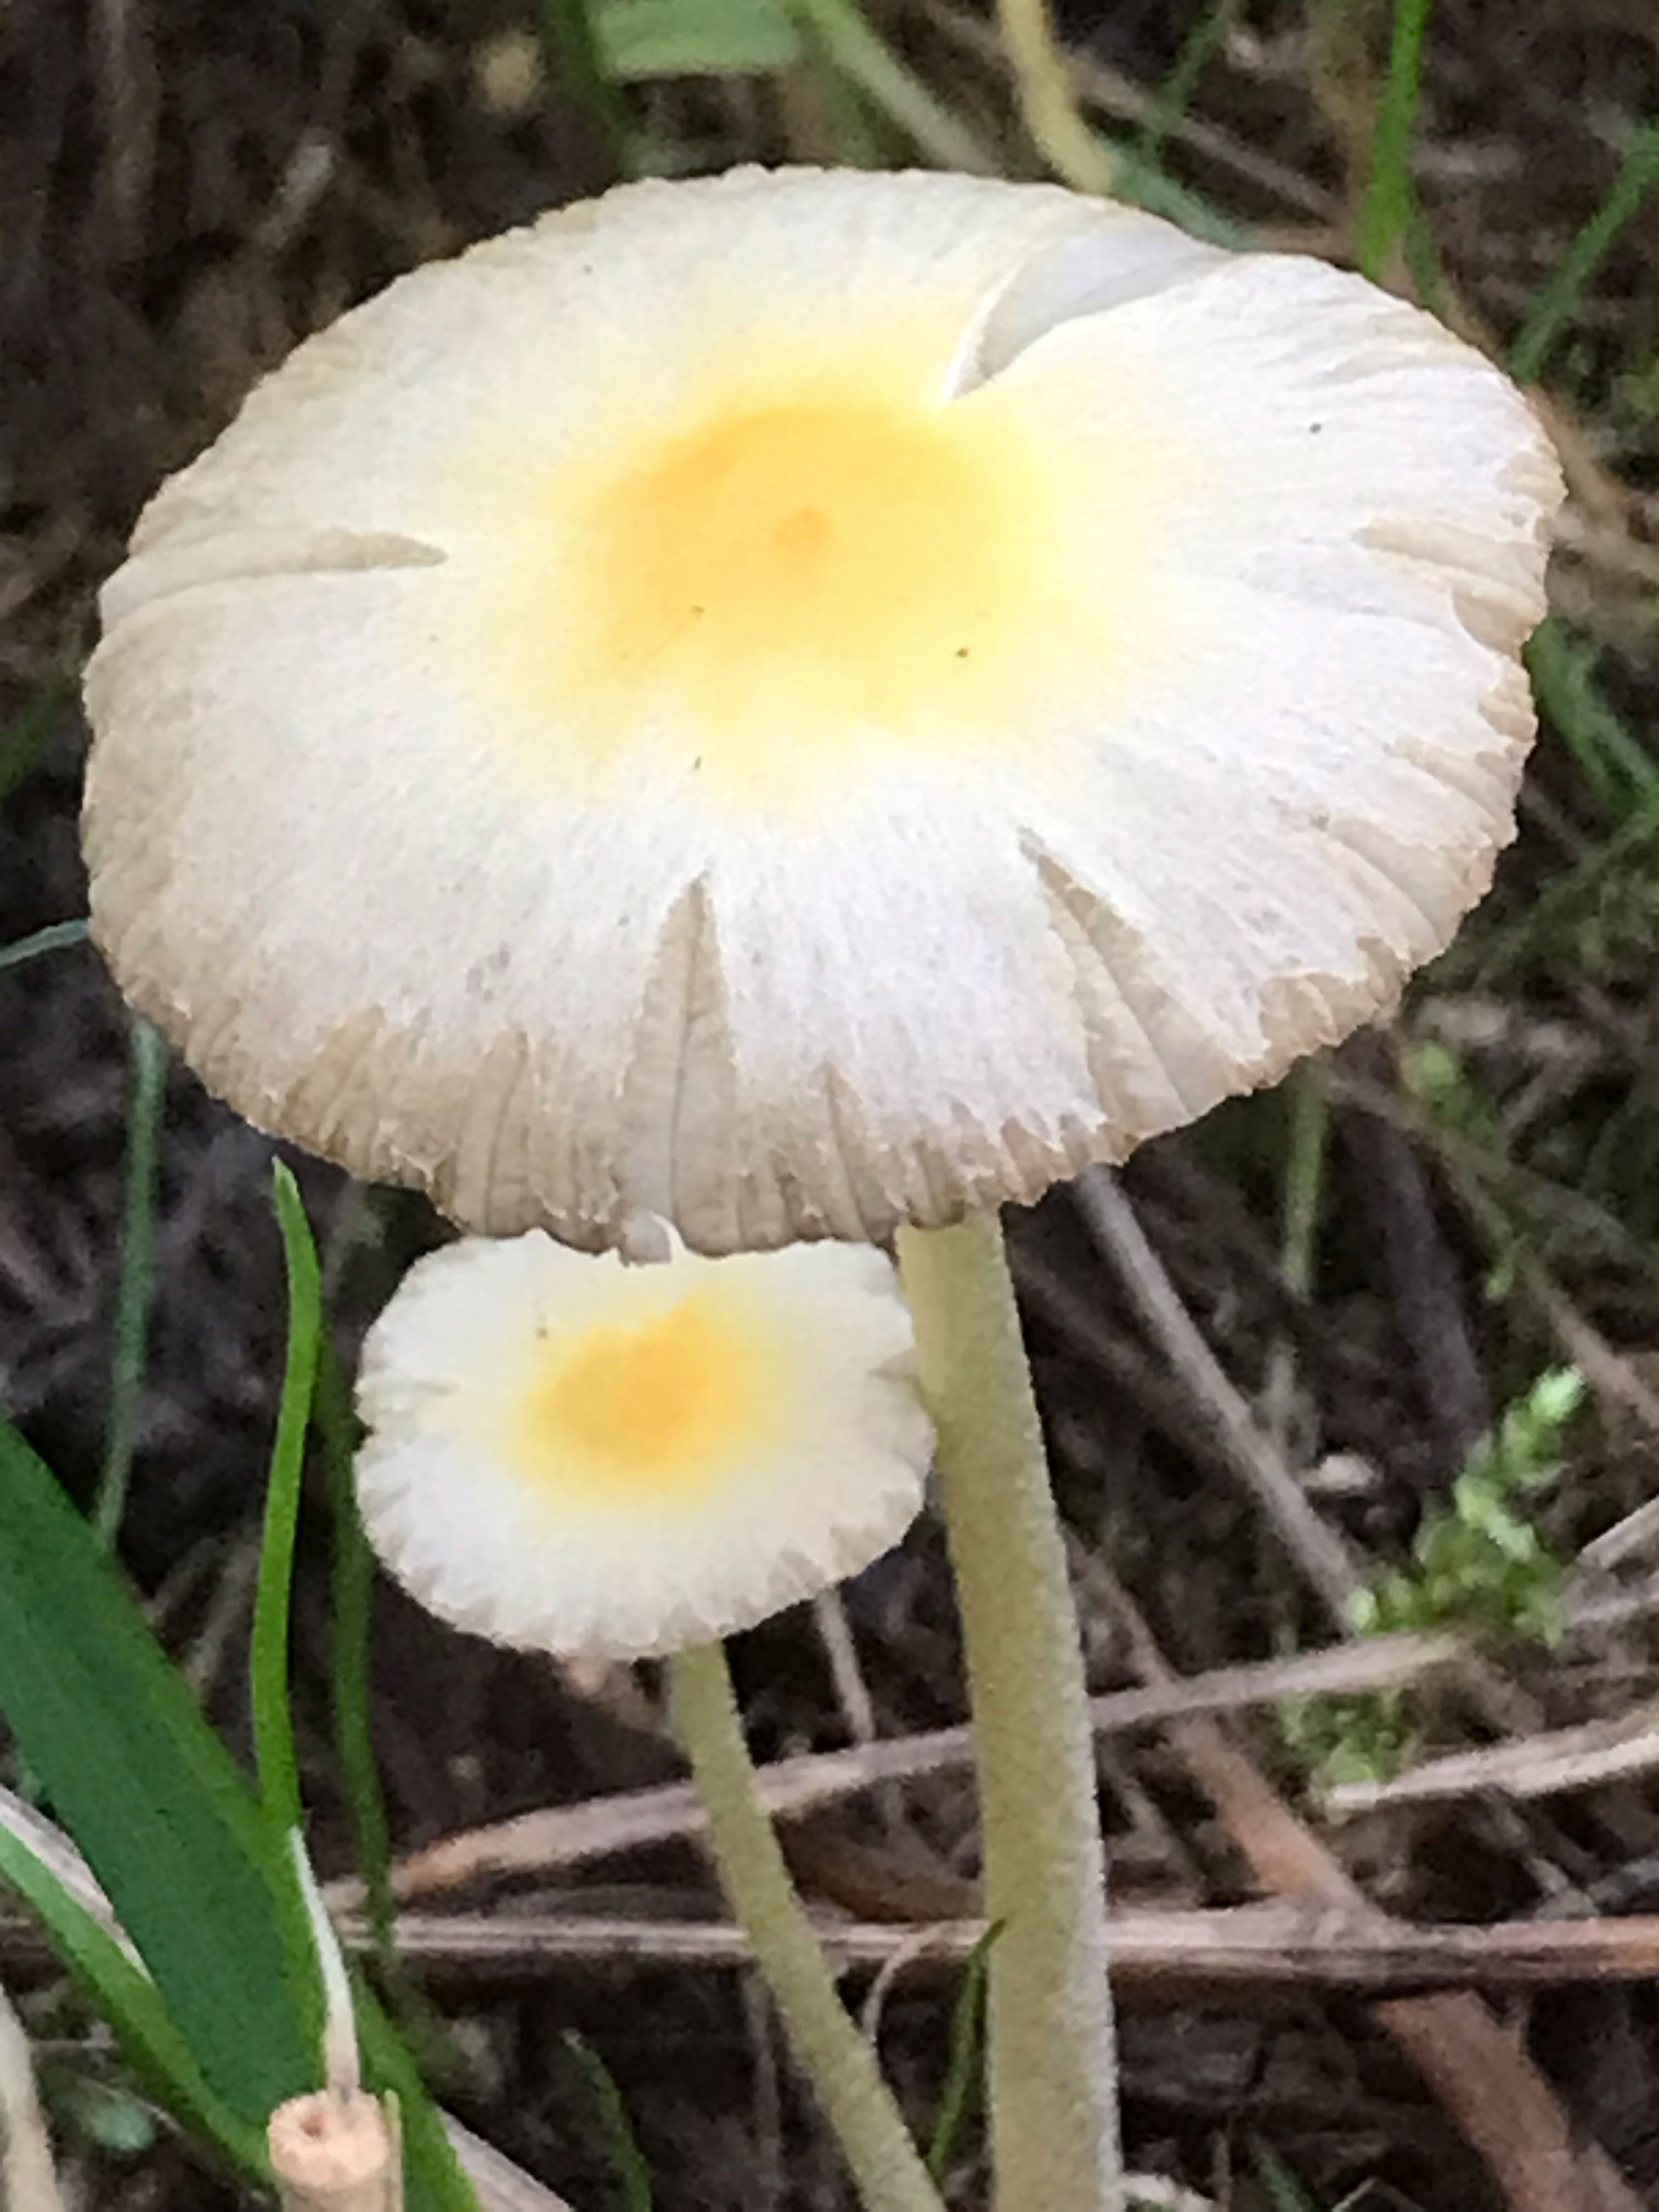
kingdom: Fungi
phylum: Basidiomycota
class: Agaricomycetes
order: Agaricales
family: Bolbitiaceae
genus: Bolbitius
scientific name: Bolbitius titubans
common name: almindelig gulhat
